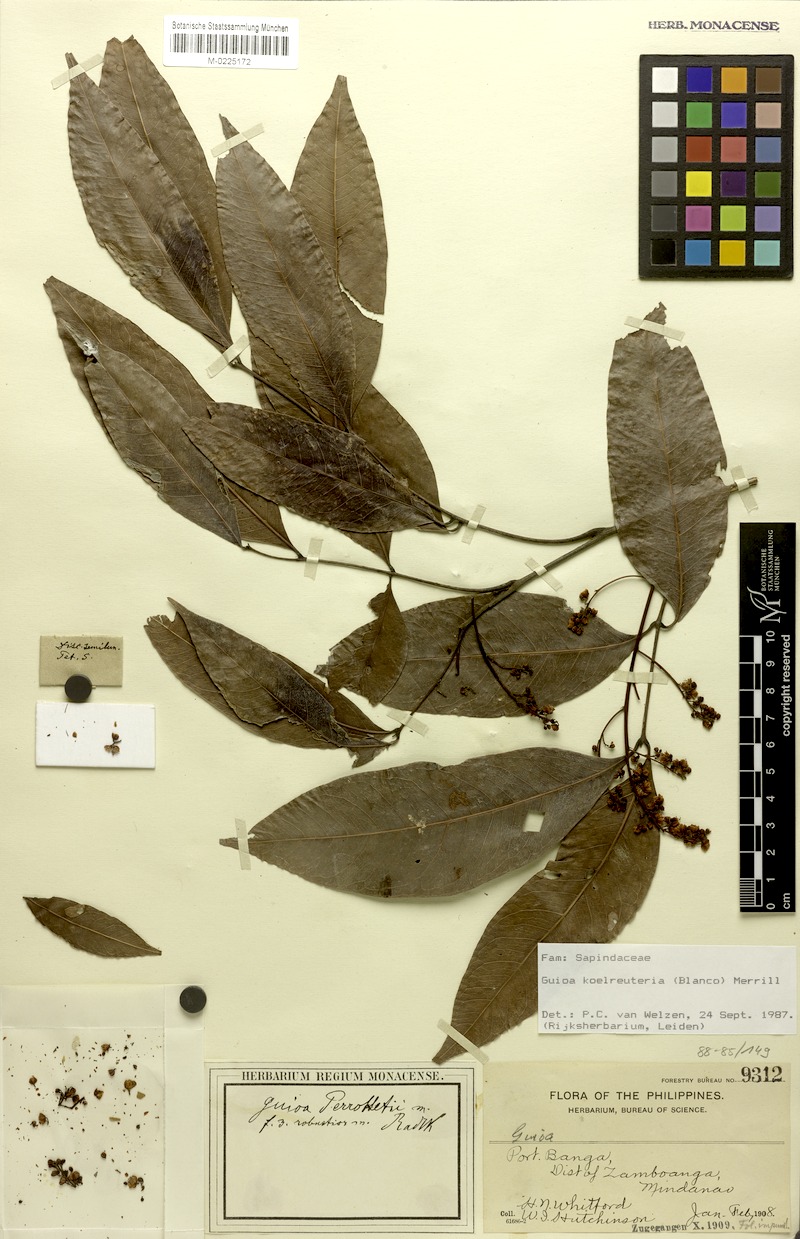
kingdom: Plantae
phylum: Tracheophyta
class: Magnoliopsida
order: Sapindales
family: Sapindaceae
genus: Guioa
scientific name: Guioa koelreuteria
